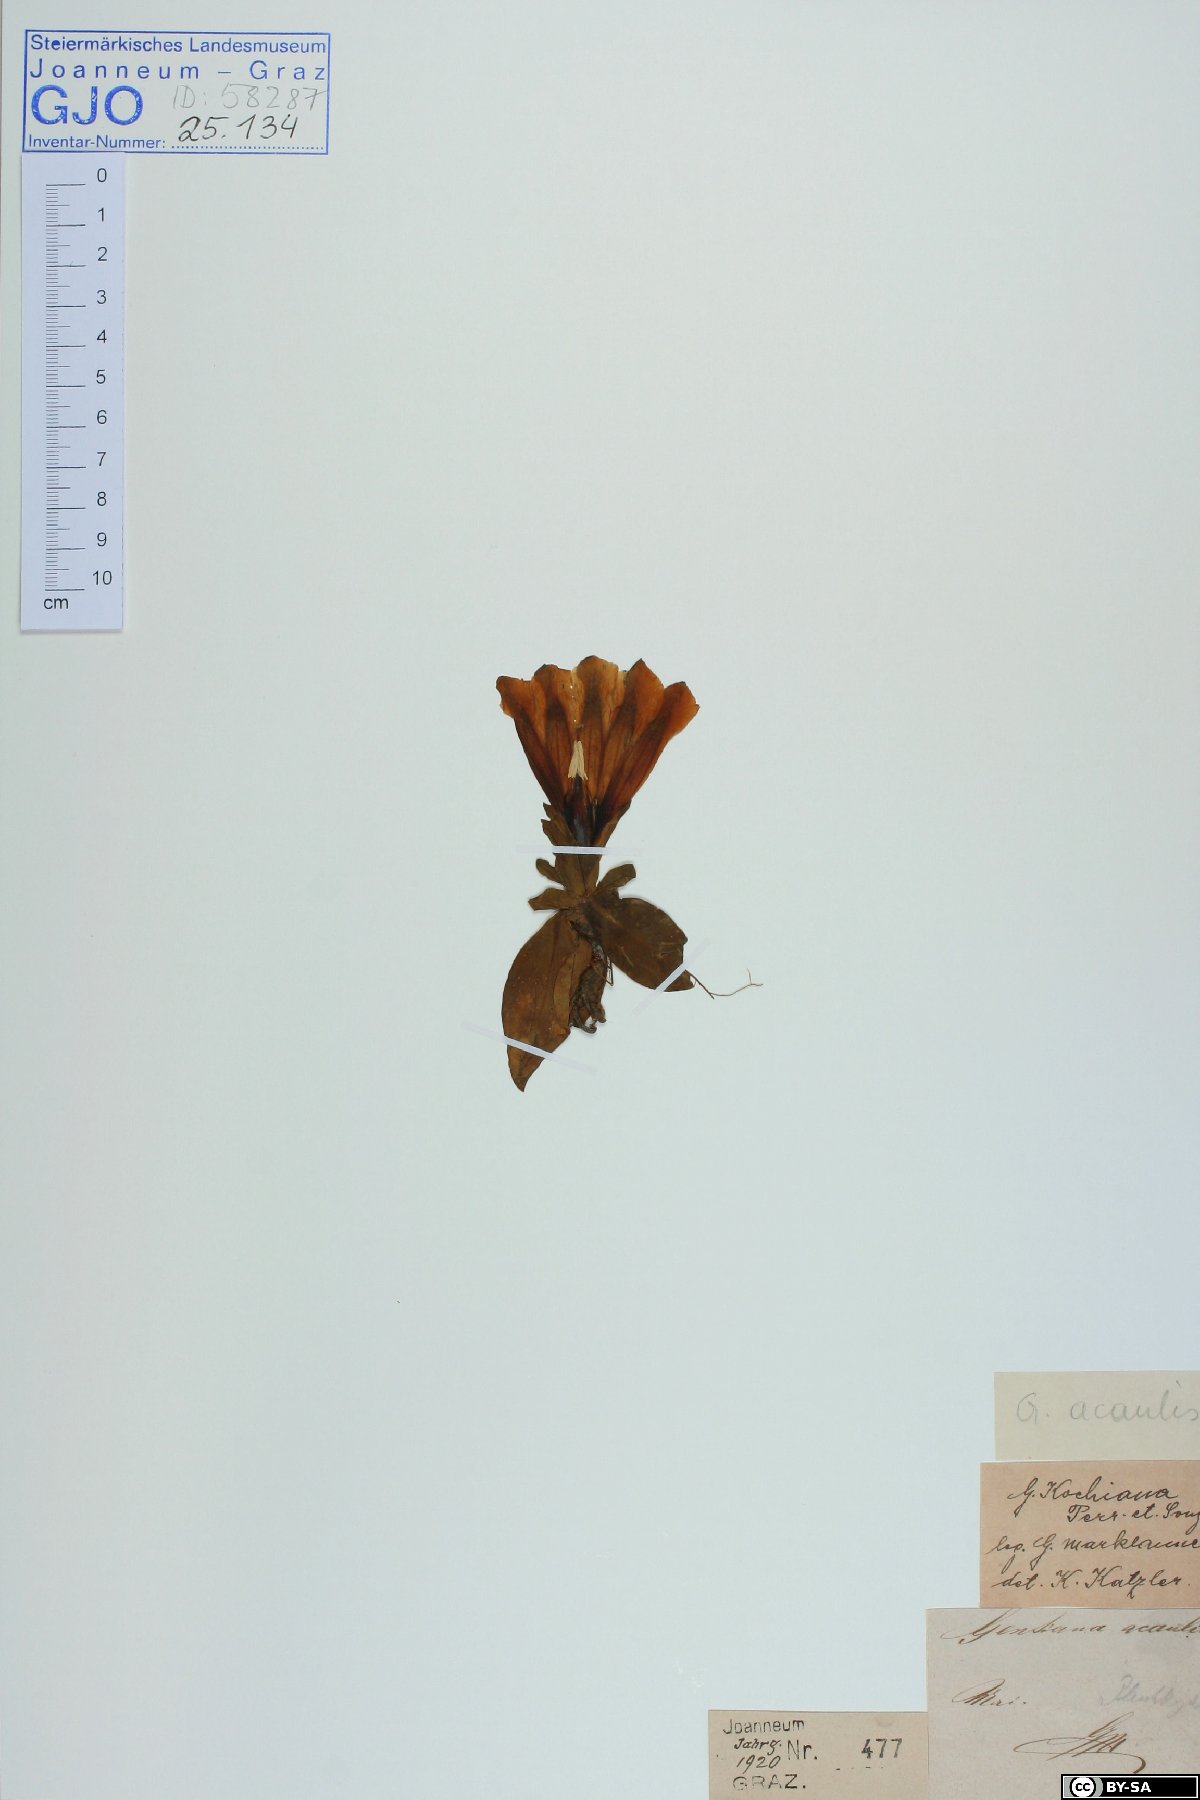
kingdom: Plantae
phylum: Tracheophyta
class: Magnoliopsida
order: Gentianales
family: Gentianaceae
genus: Gentiana
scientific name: Gentiana acaulis
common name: Trumpet gentian
